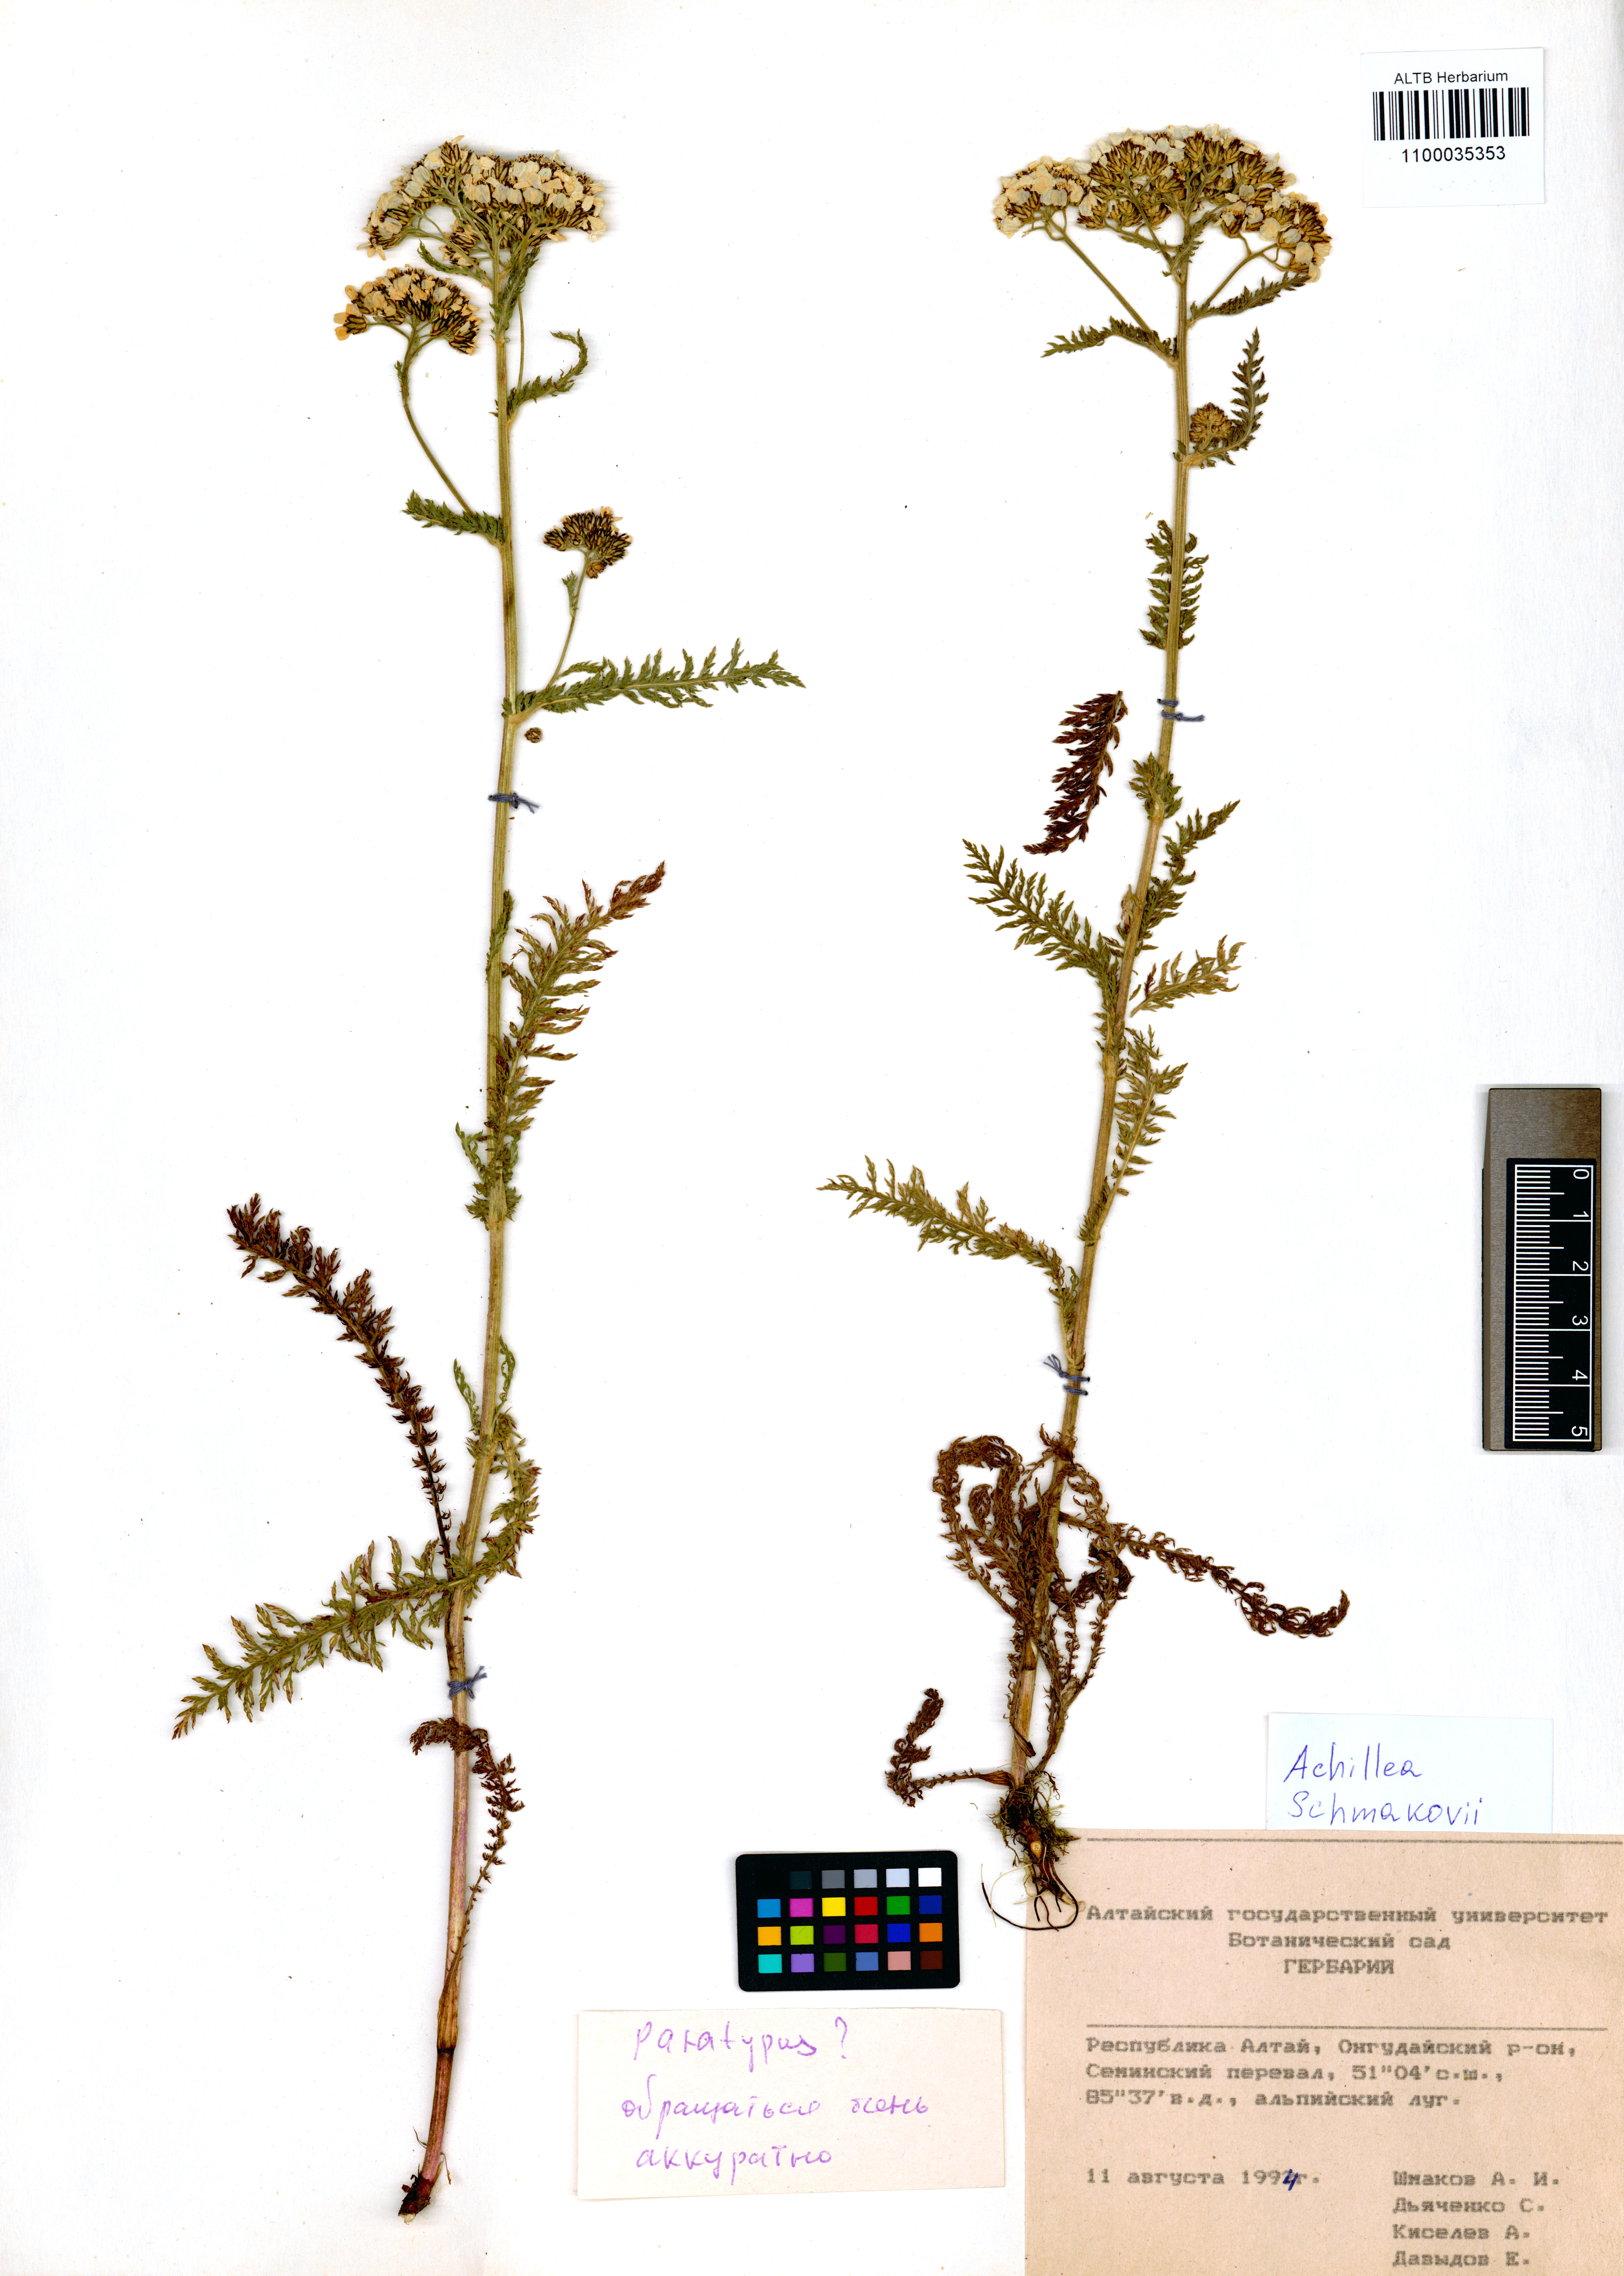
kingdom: Plantae
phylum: Tracheophyta
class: Magnoliopsida
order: Asterales
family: Asteraceae
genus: Achillea
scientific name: Achillea schmakovii
